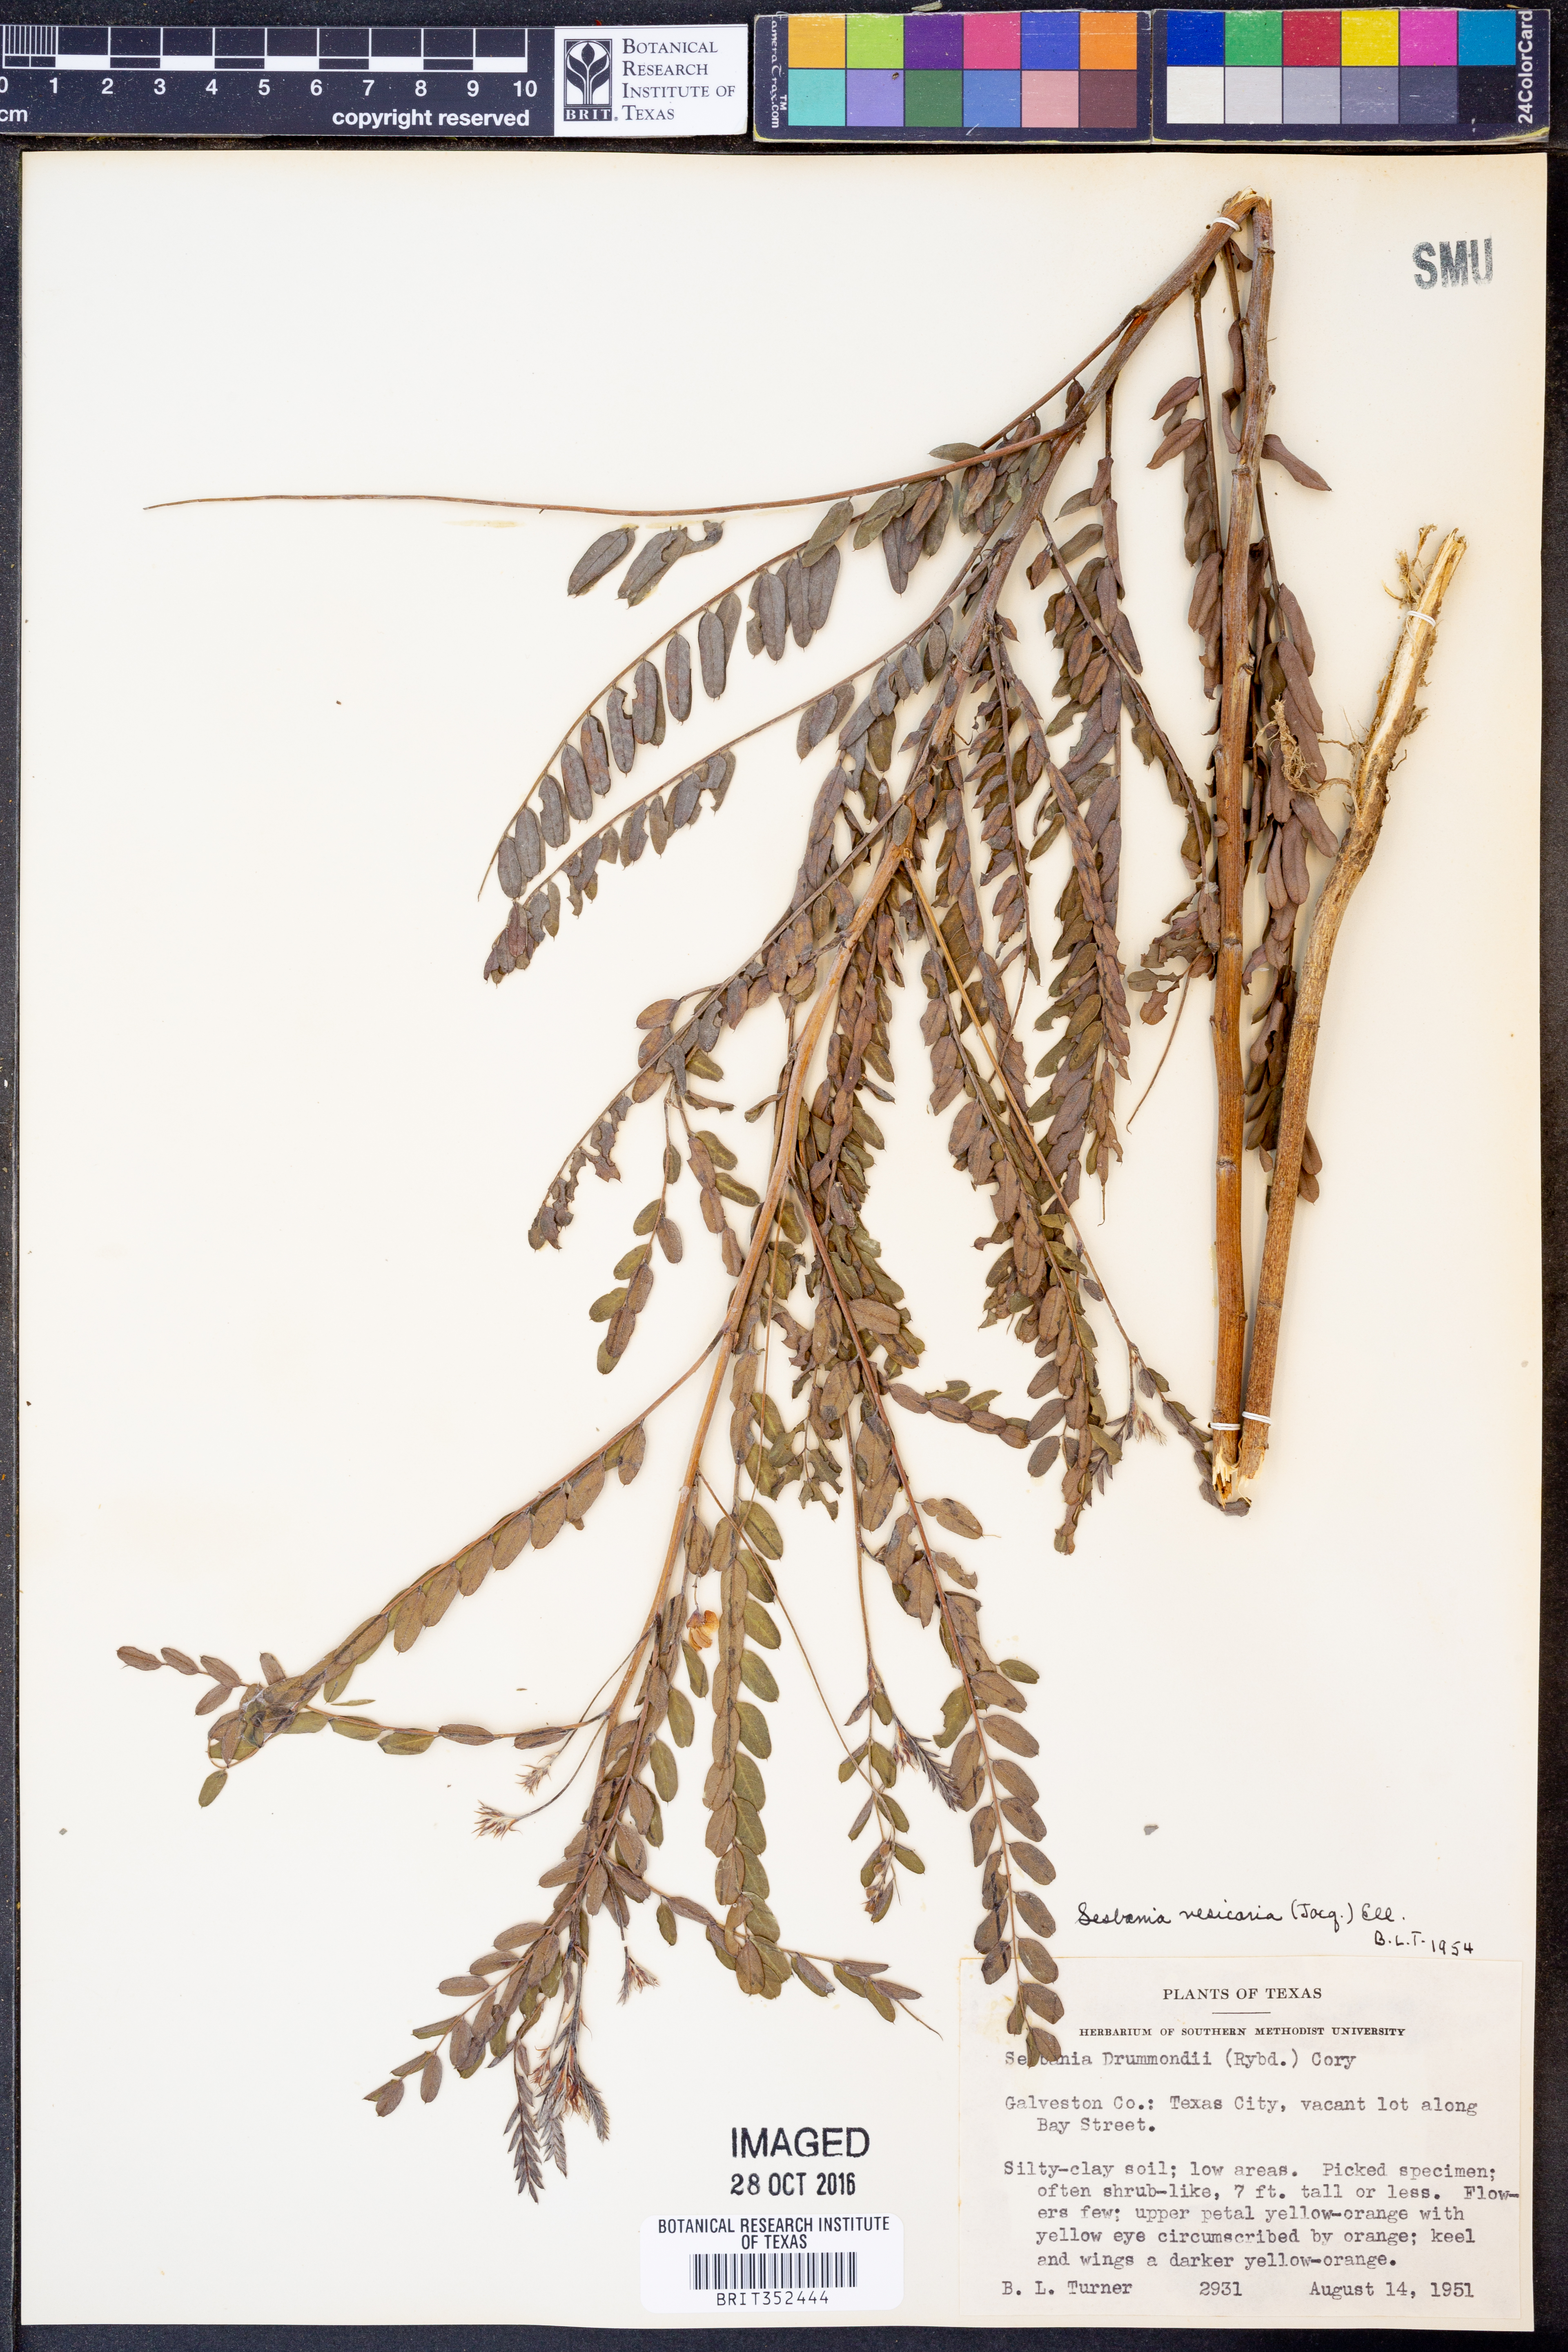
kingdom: Plantae
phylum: Tracheophyta
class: Magnoliopsida
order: Fabales
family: Fabaceae
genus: Sesbania
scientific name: Sesbania vesicaria
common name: Bagpod
